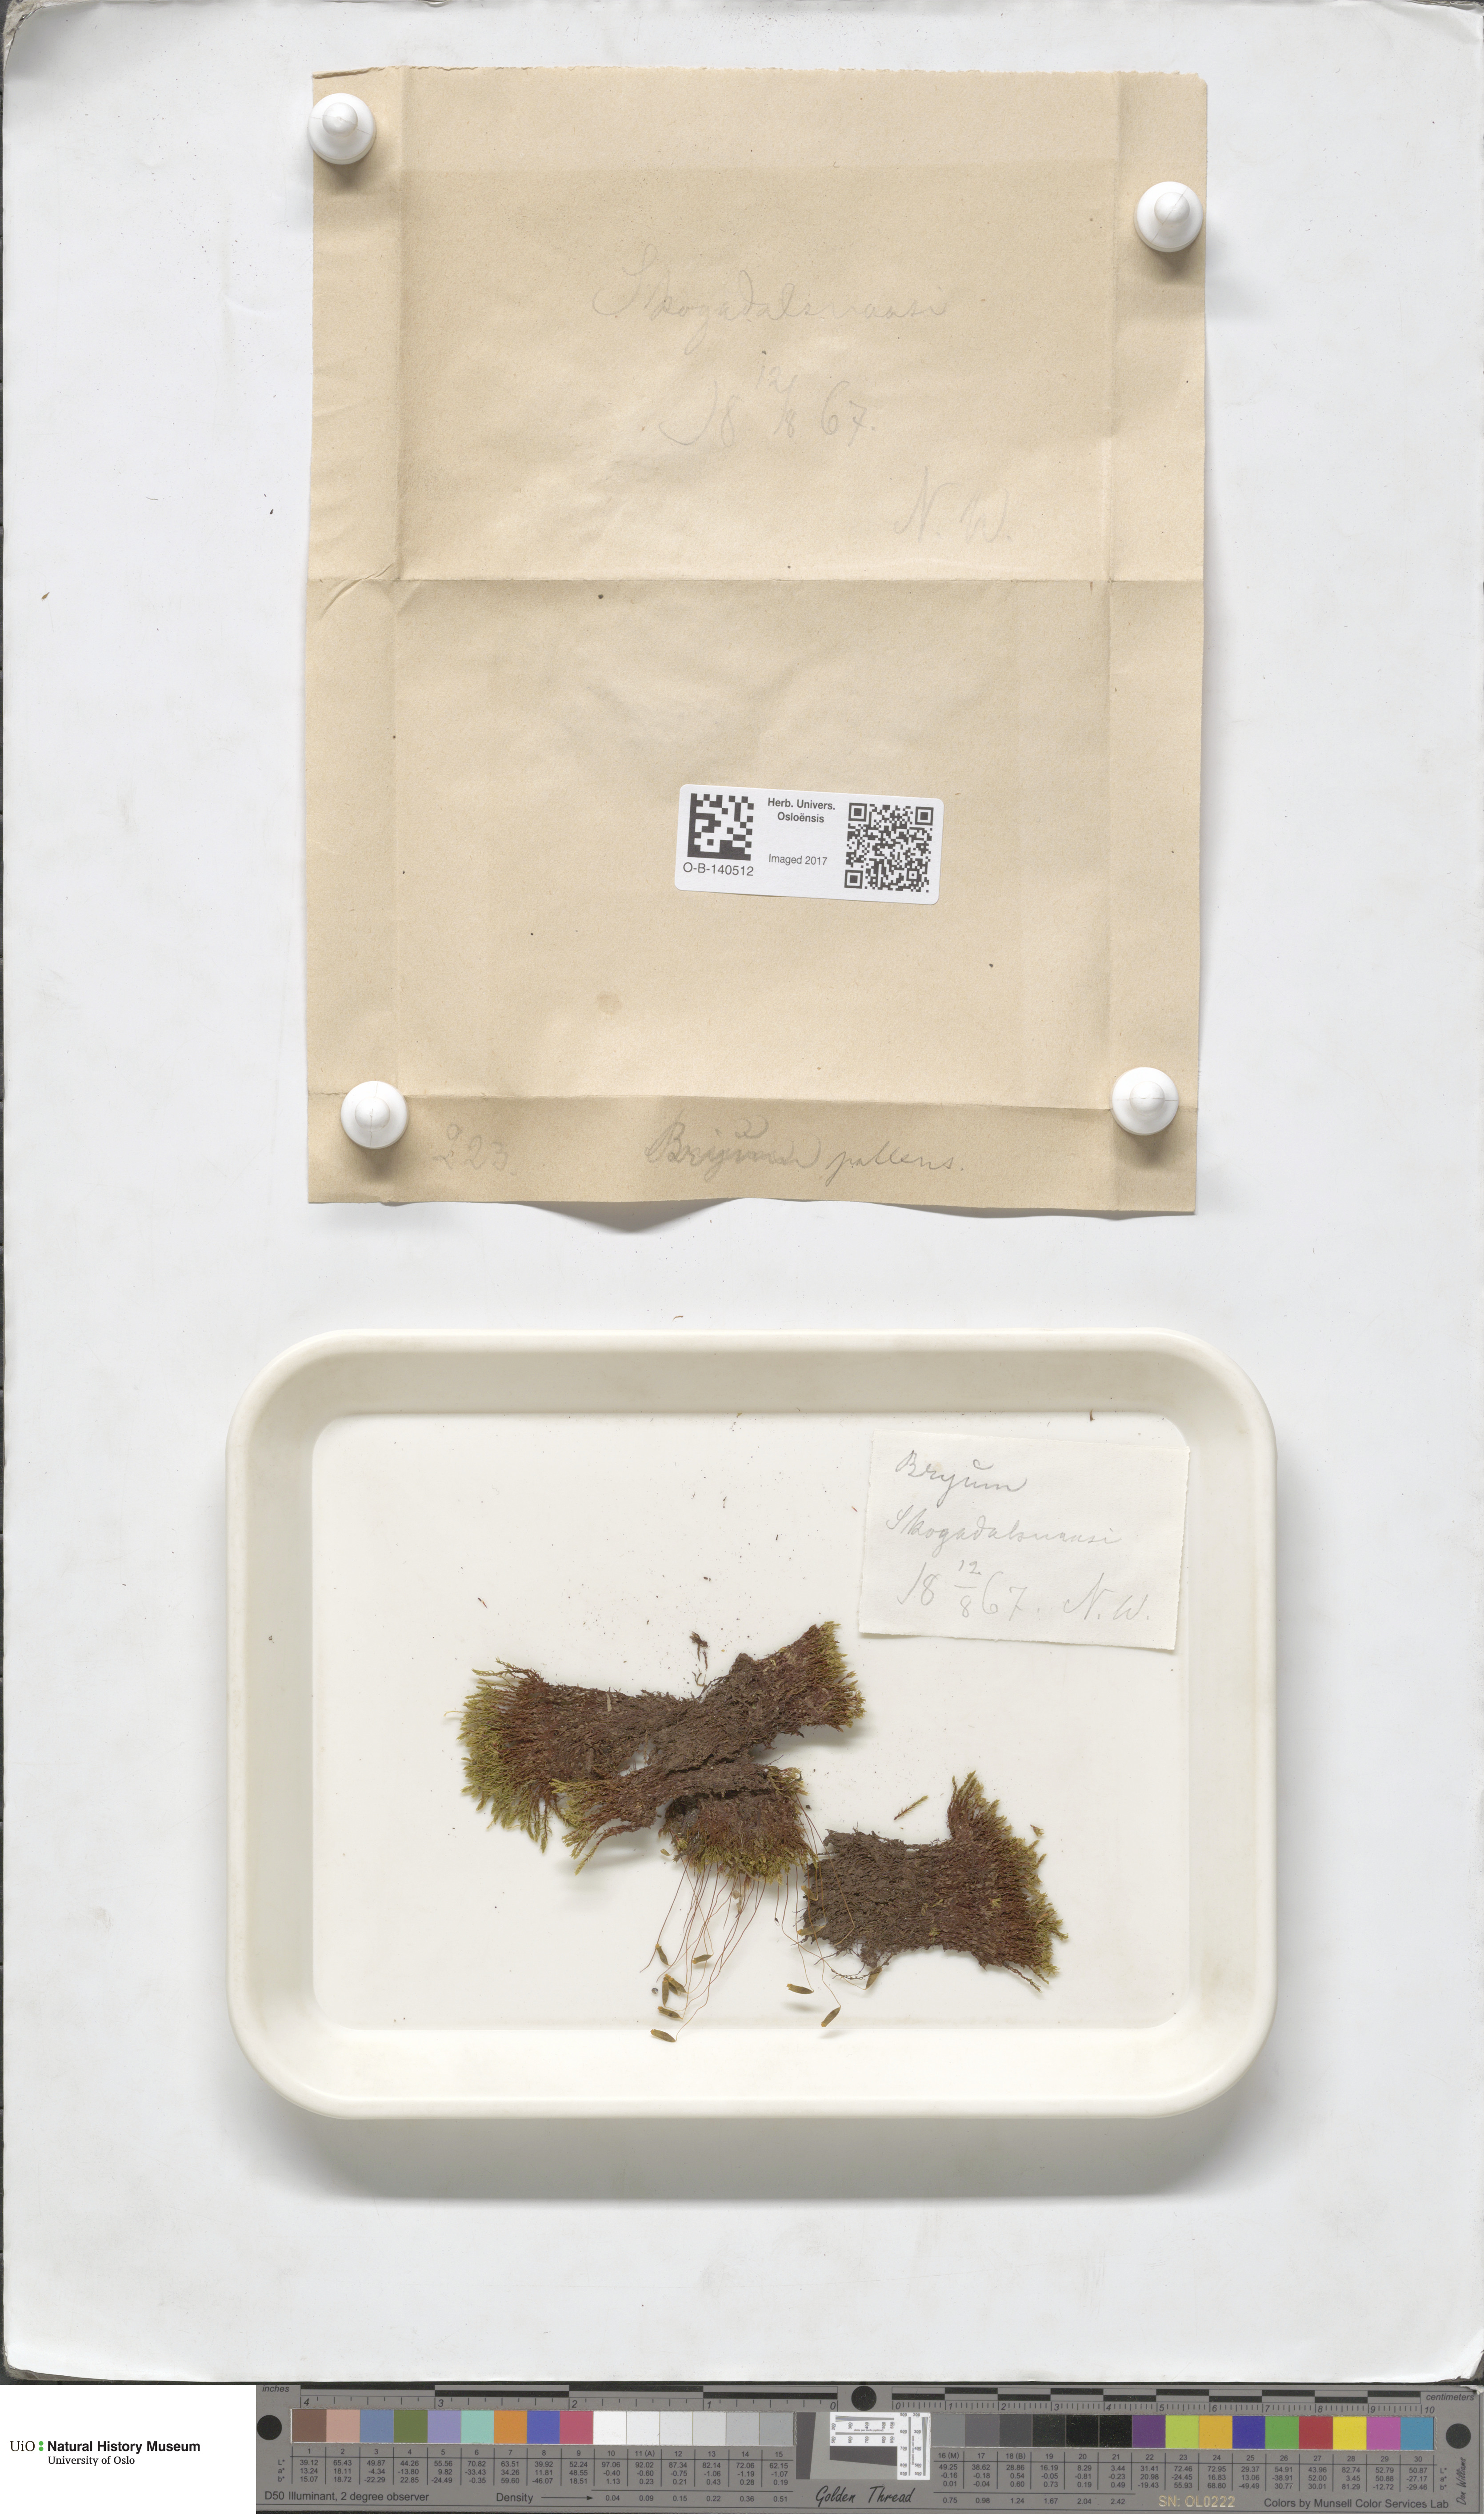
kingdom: Plantae
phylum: Bryophyta
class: Bryopsida
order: Bryales
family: Bryaceae
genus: Ptychostomum
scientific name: Ptychostomum pallens
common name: Pale thread-moss
